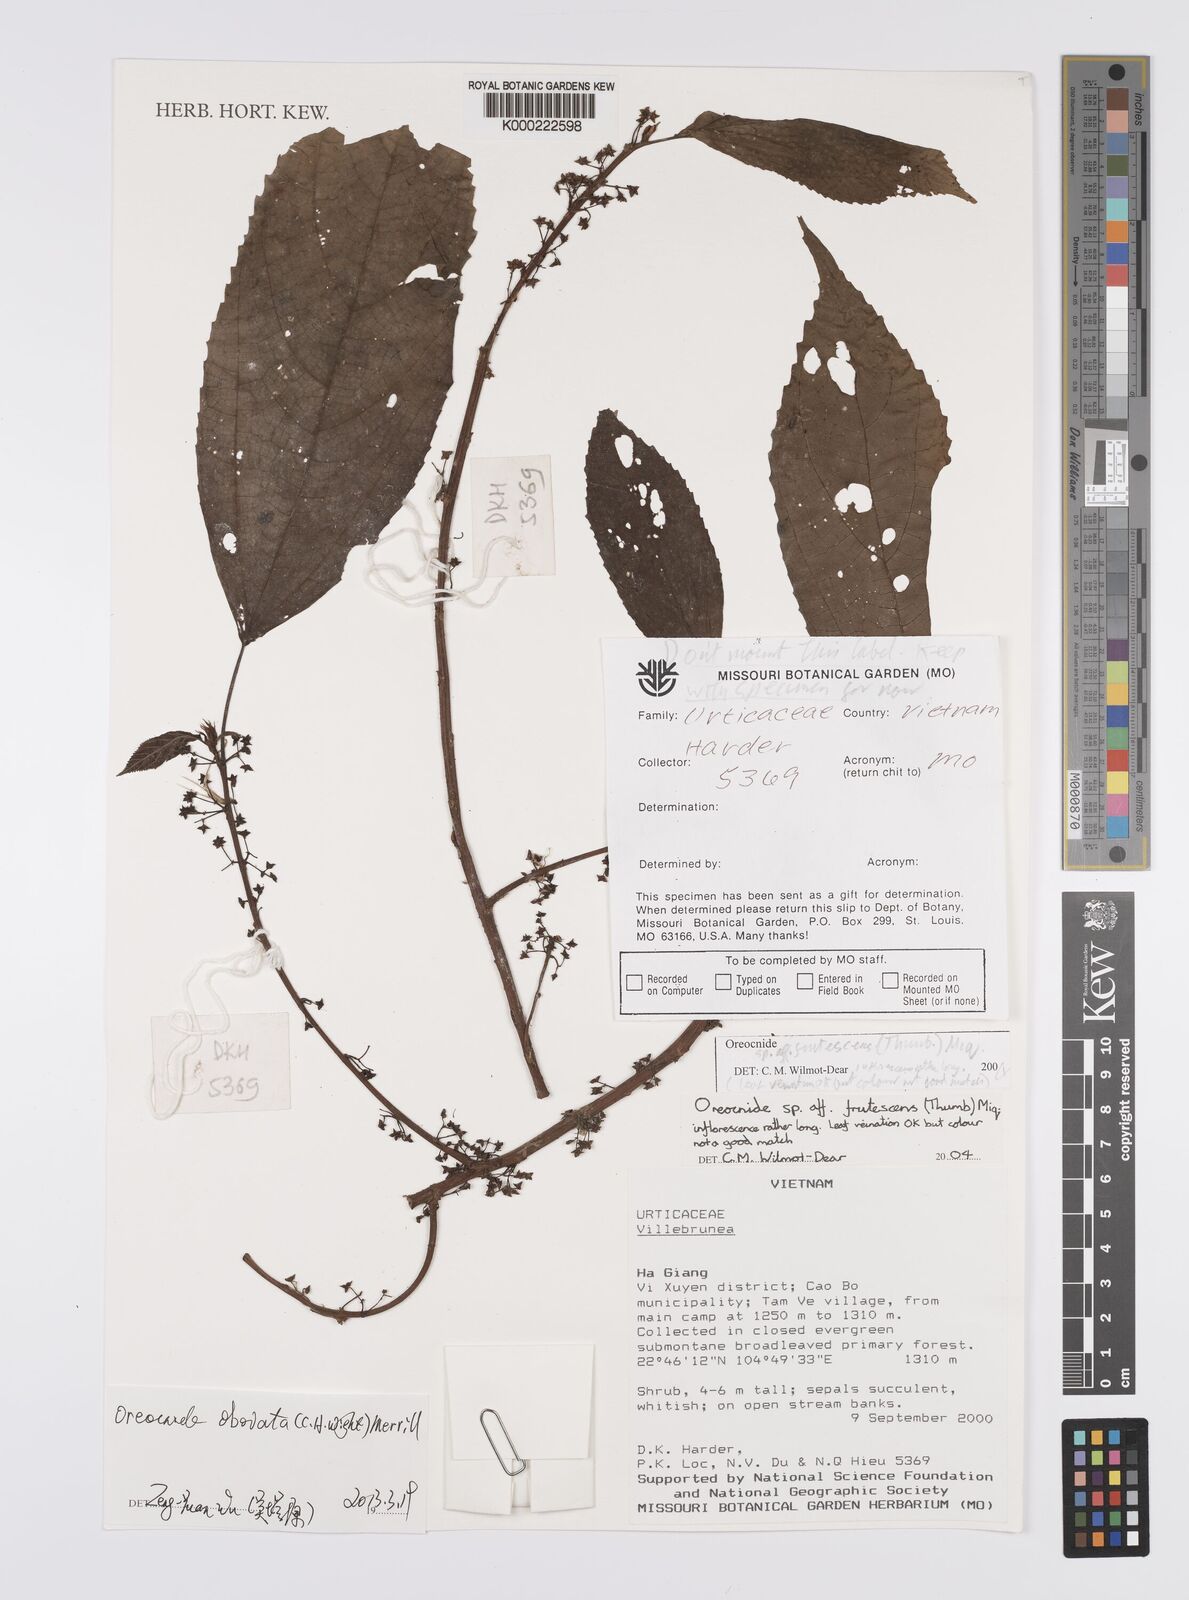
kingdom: Plantae
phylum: Tracheophyta
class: Magnoliopsida
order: Rosales
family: Urticaceae
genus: Oreocnide
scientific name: Oreocnide
